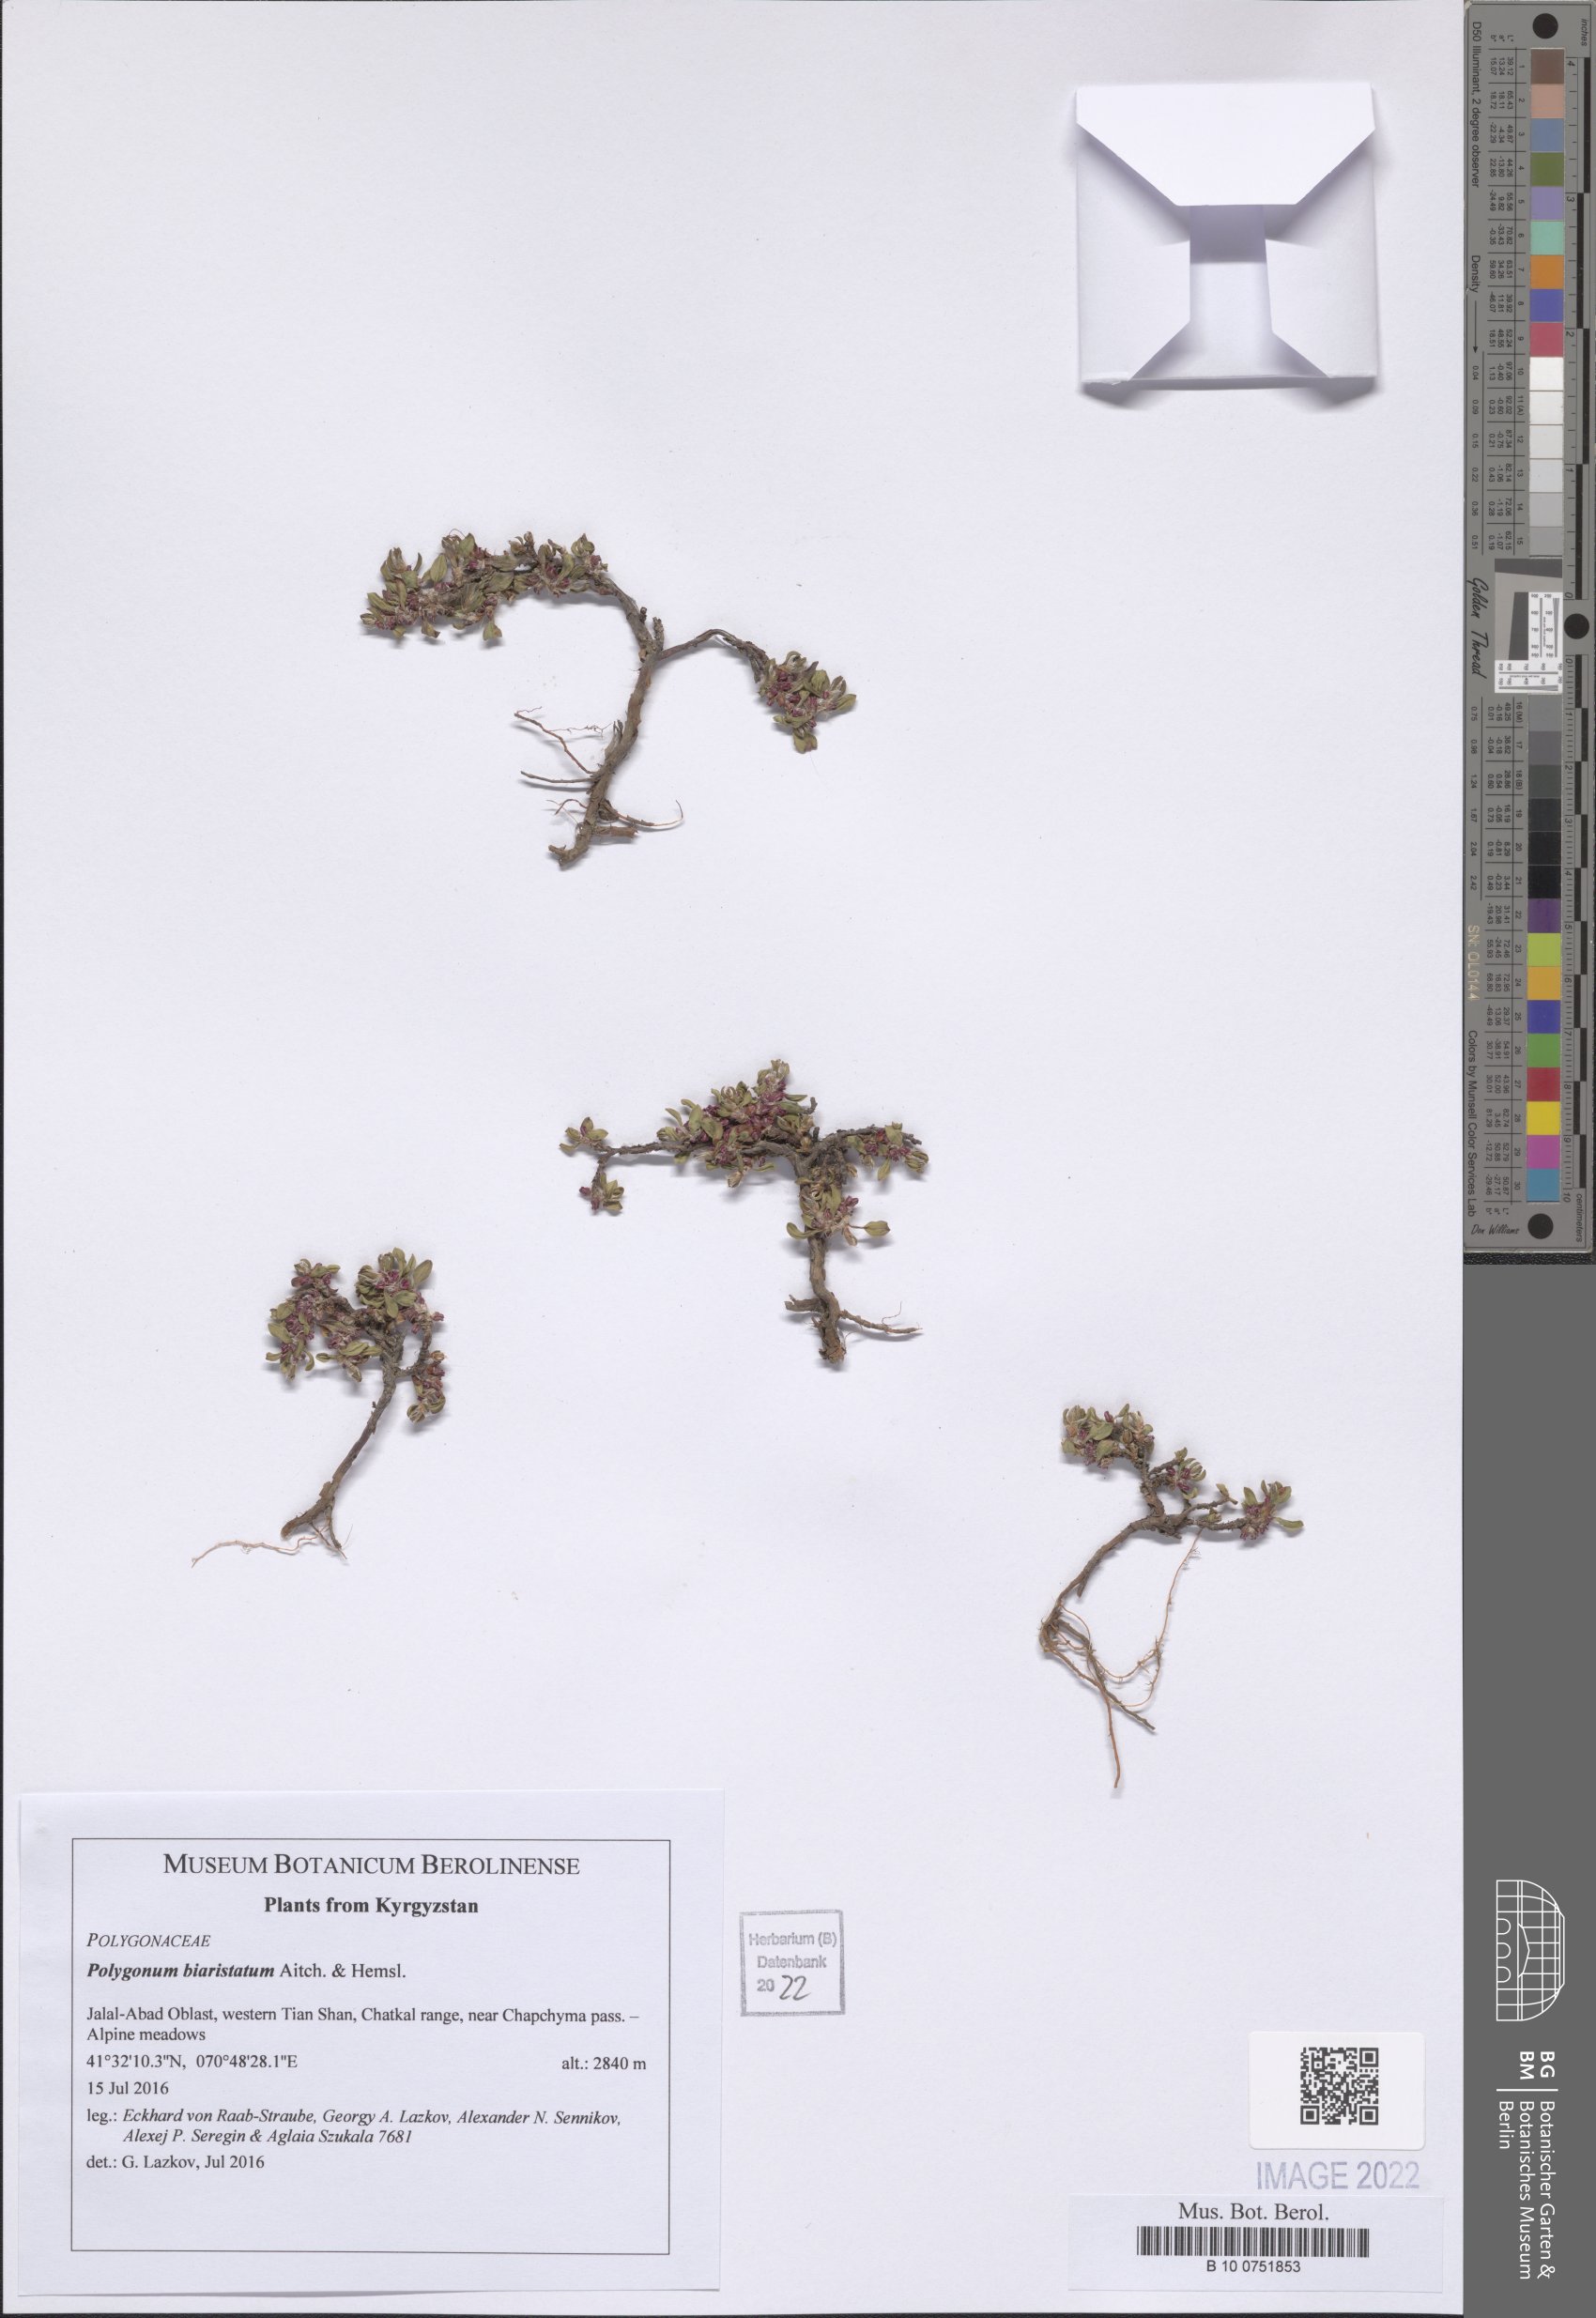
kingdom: Plantae
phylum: Tracheophyta
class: Magnoliopsida
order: Caryophyllales
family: Polygonaceae
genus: Polygonum
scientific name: Polygonum biaristatum
